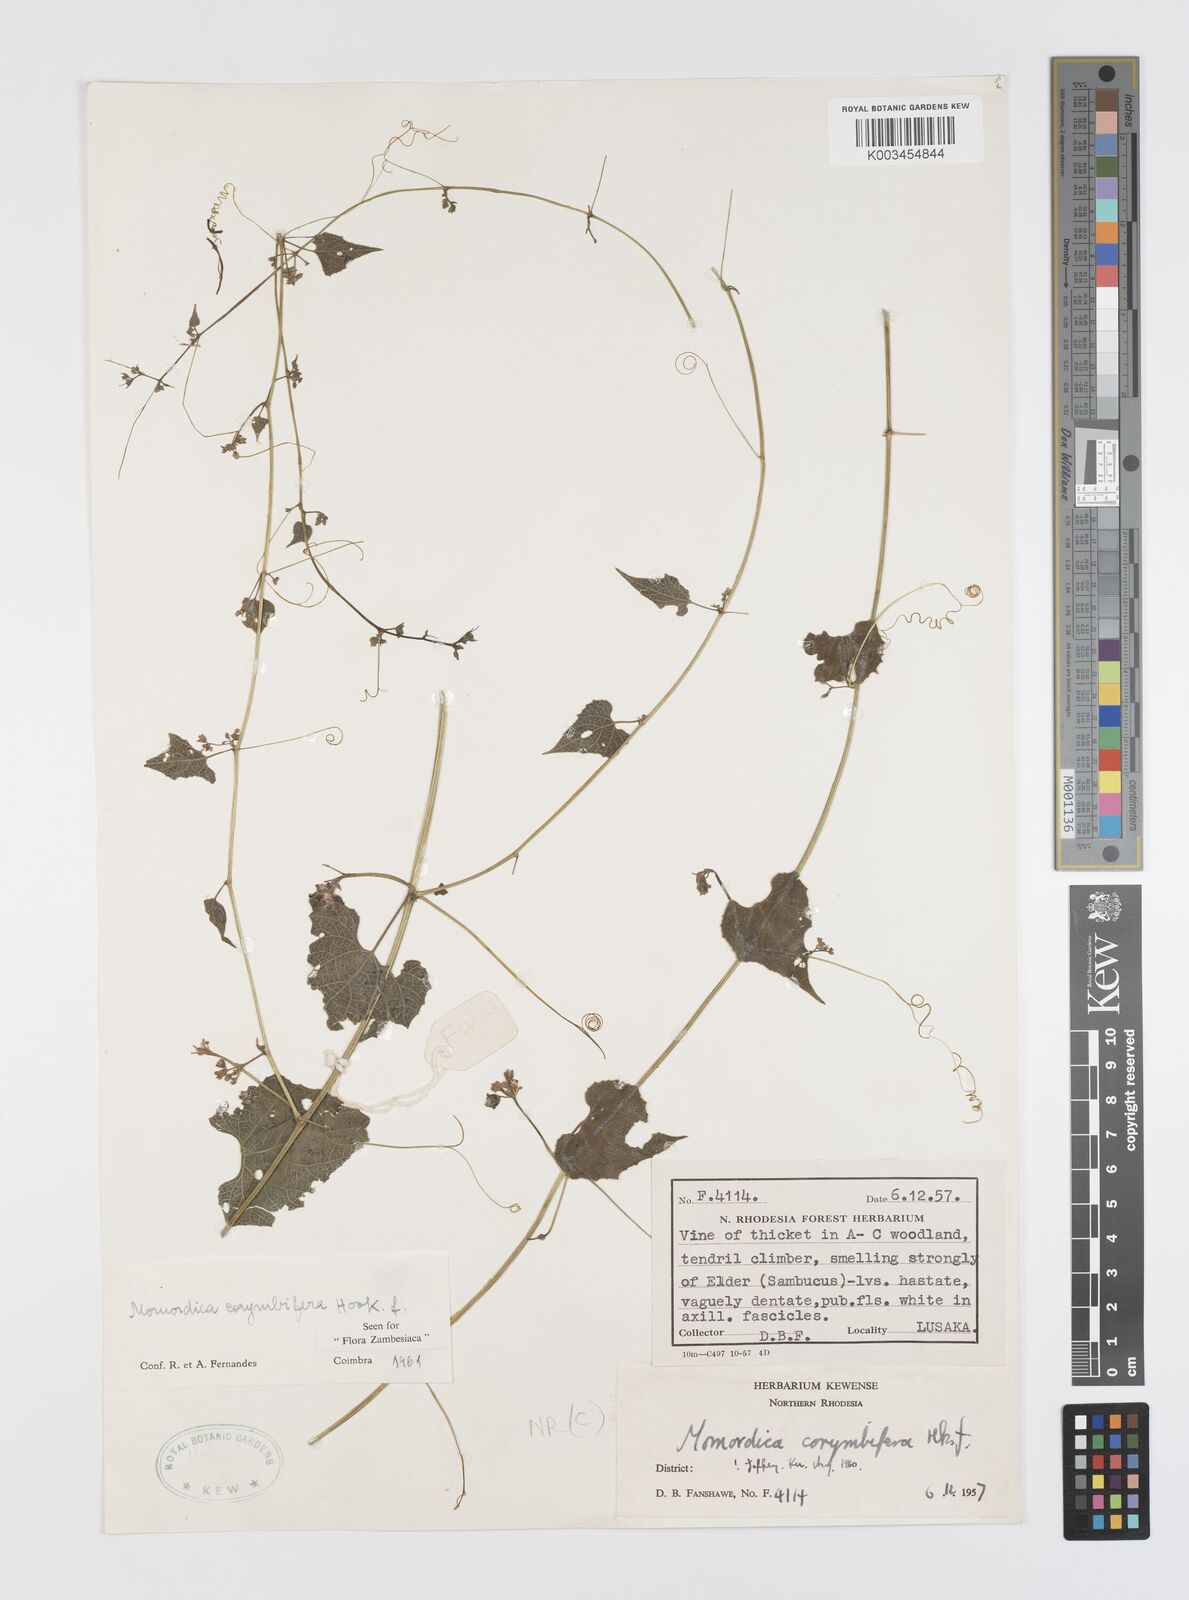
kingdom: Plantae
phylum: Tracheophyta
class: Magnoliopsida
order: Cucurbitales
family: Cucurbitaceae
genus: Momordica
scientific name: Momordica corymbifera
